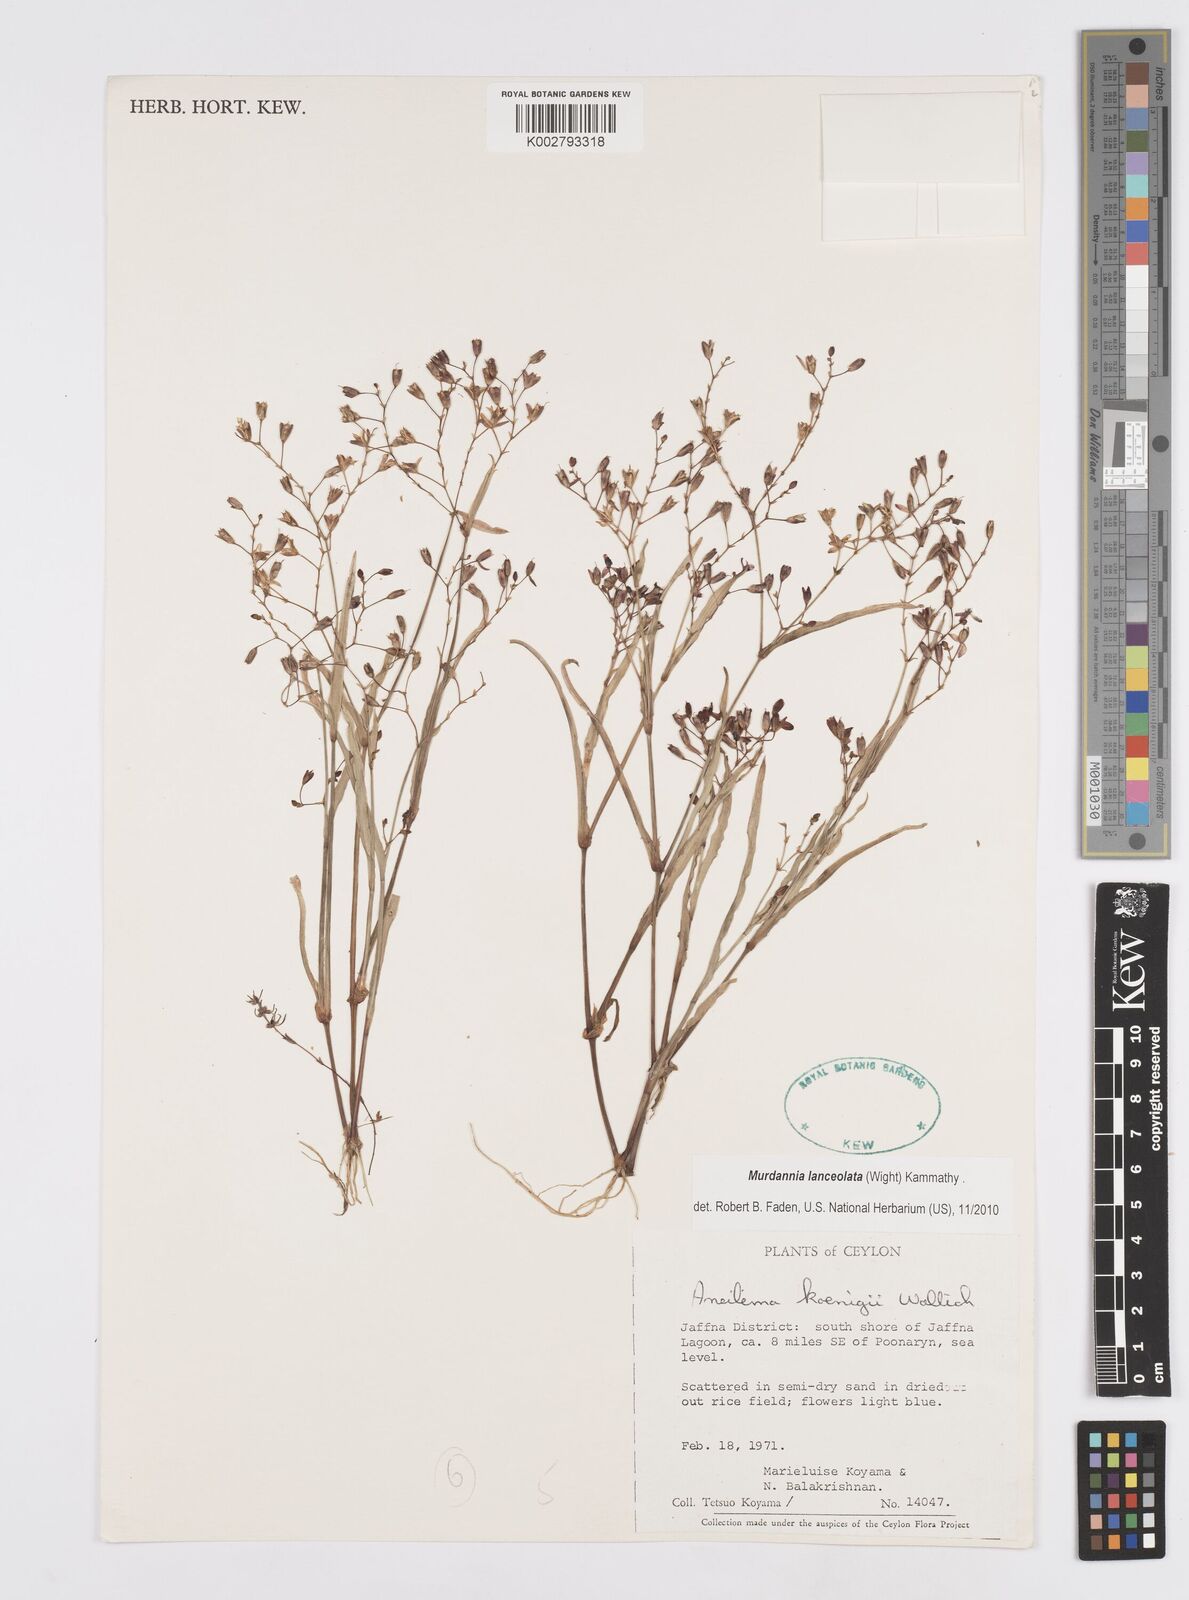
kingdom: Plantae
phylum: Tracheophyta
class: Liliopsida
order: Commelinales
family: Commelinaceae
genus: Murdannia
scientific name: Murdannia lanceolata
